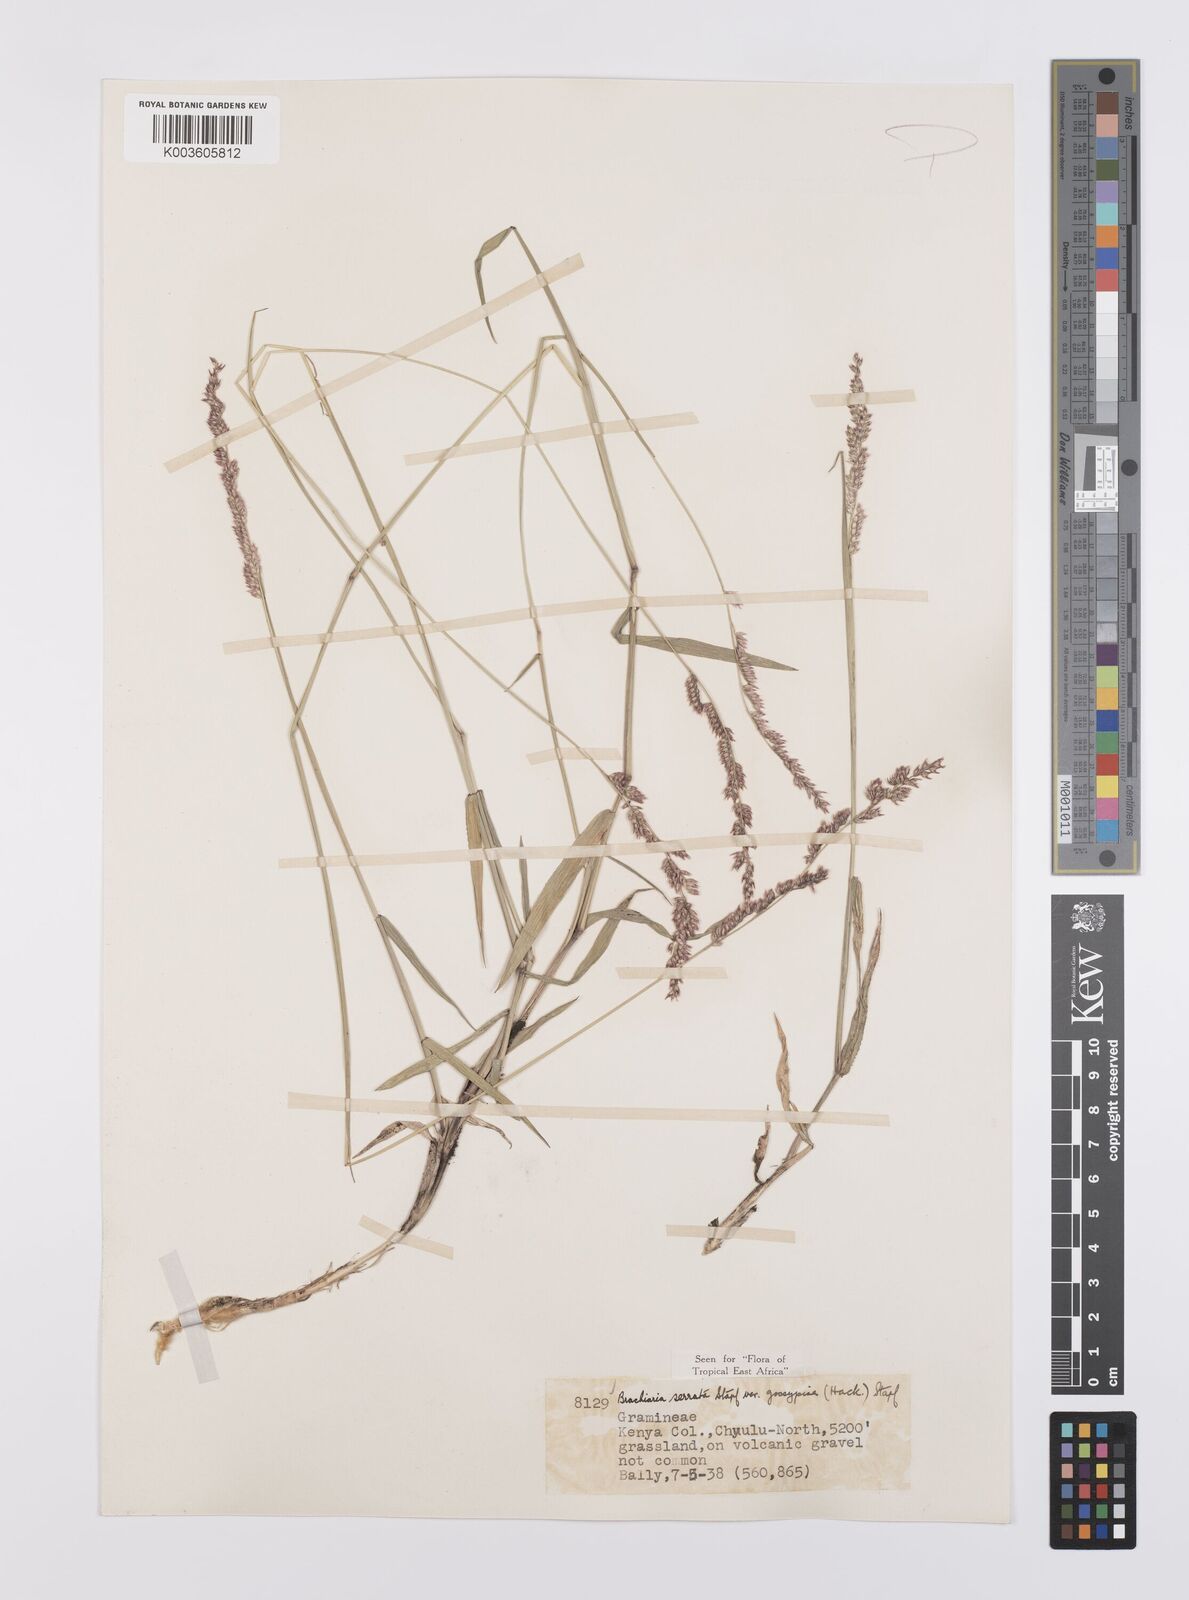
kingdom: Plantae
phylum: Tracheophyta
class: Liliopsida
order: Poales
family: Poaceae
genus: Urochloa
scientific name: Urochloa serrata
